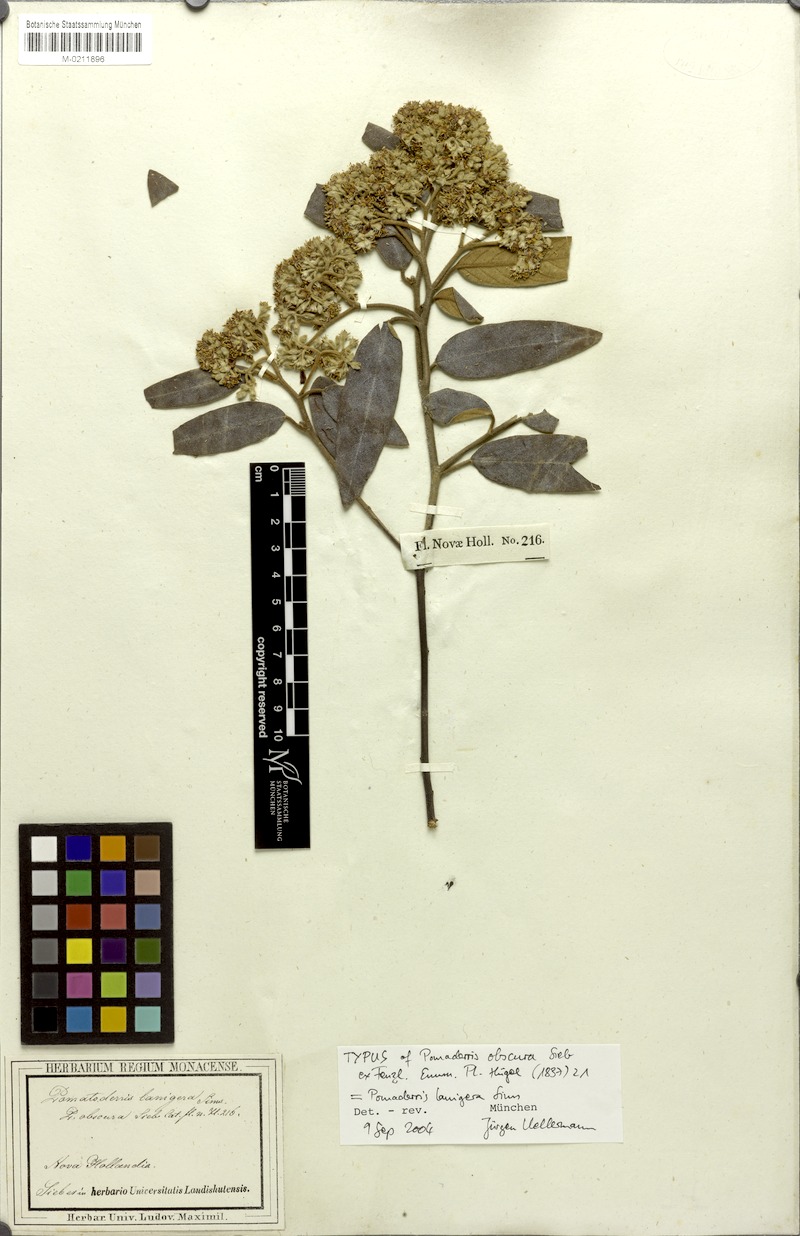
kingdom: Plantae
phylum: Tracheophyta
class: Magnoliopsida
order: Rosales
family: Rhamnaceae
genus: Pomaderris
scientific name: Pomaderris lanigera
